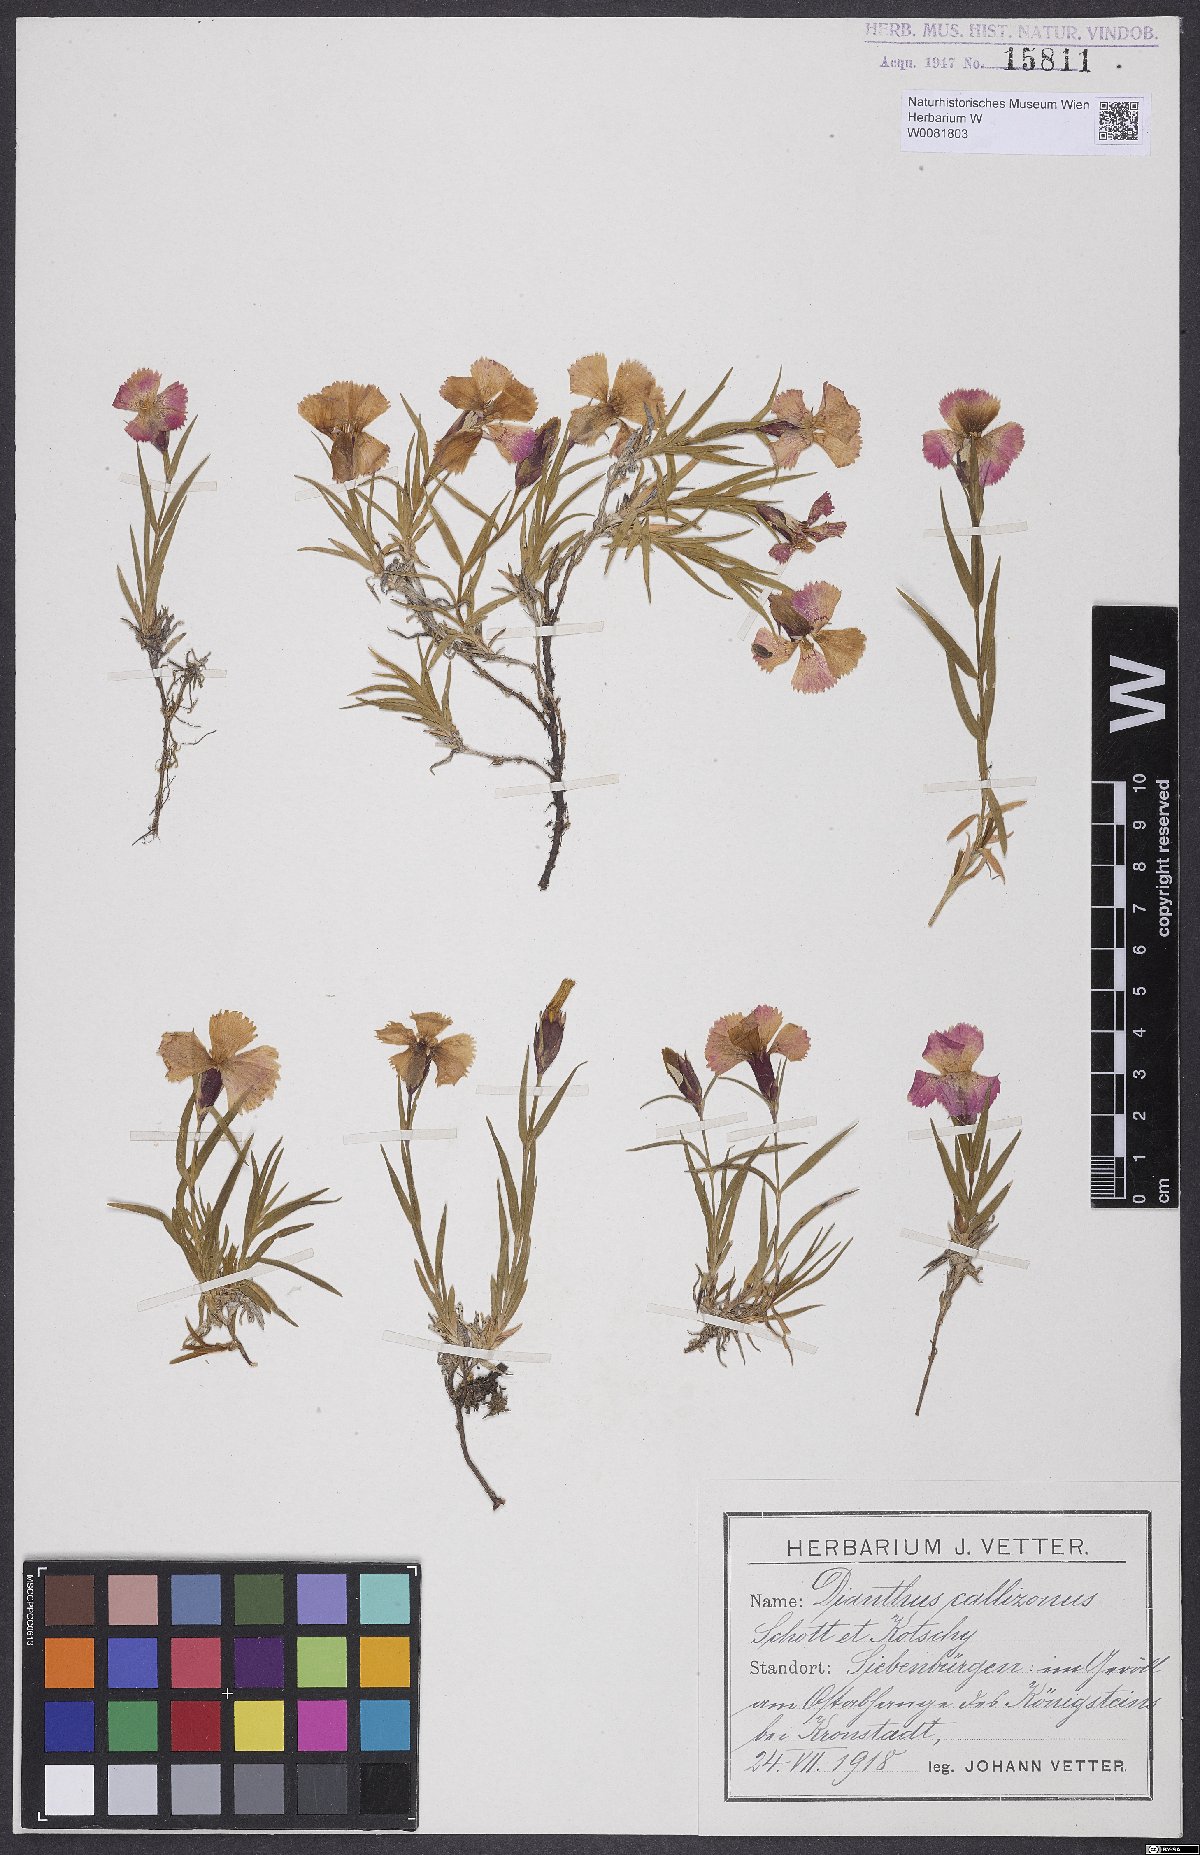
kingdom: Plantae
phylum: Tracheophyta
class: Magnoliopsida
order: Caryophyllales
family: Caryophyllaceae
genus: Dianthus
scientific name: Dianthus callizonus
